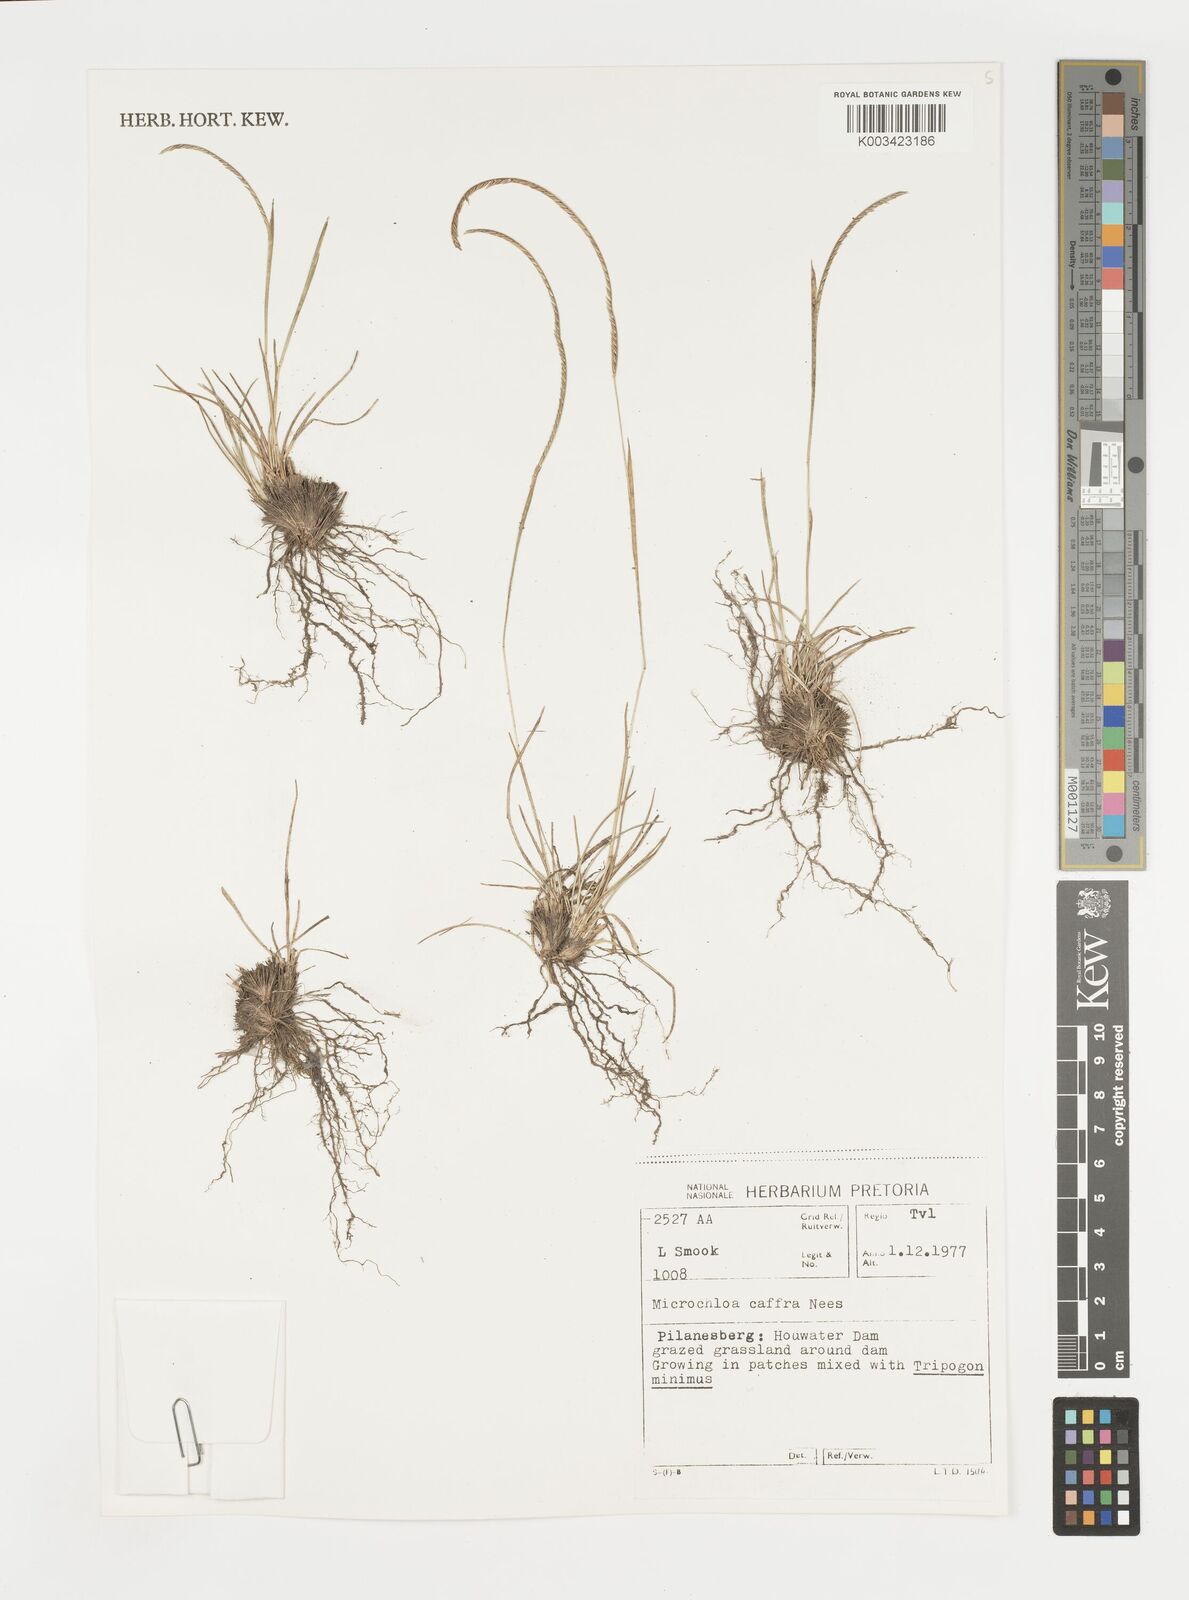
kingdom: Plantae
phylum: Tracheophyta
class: Liliopsida
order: Poales
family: Poaceae
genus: Microchloa
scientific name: Microchloa caffra
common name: Pincushion grass
